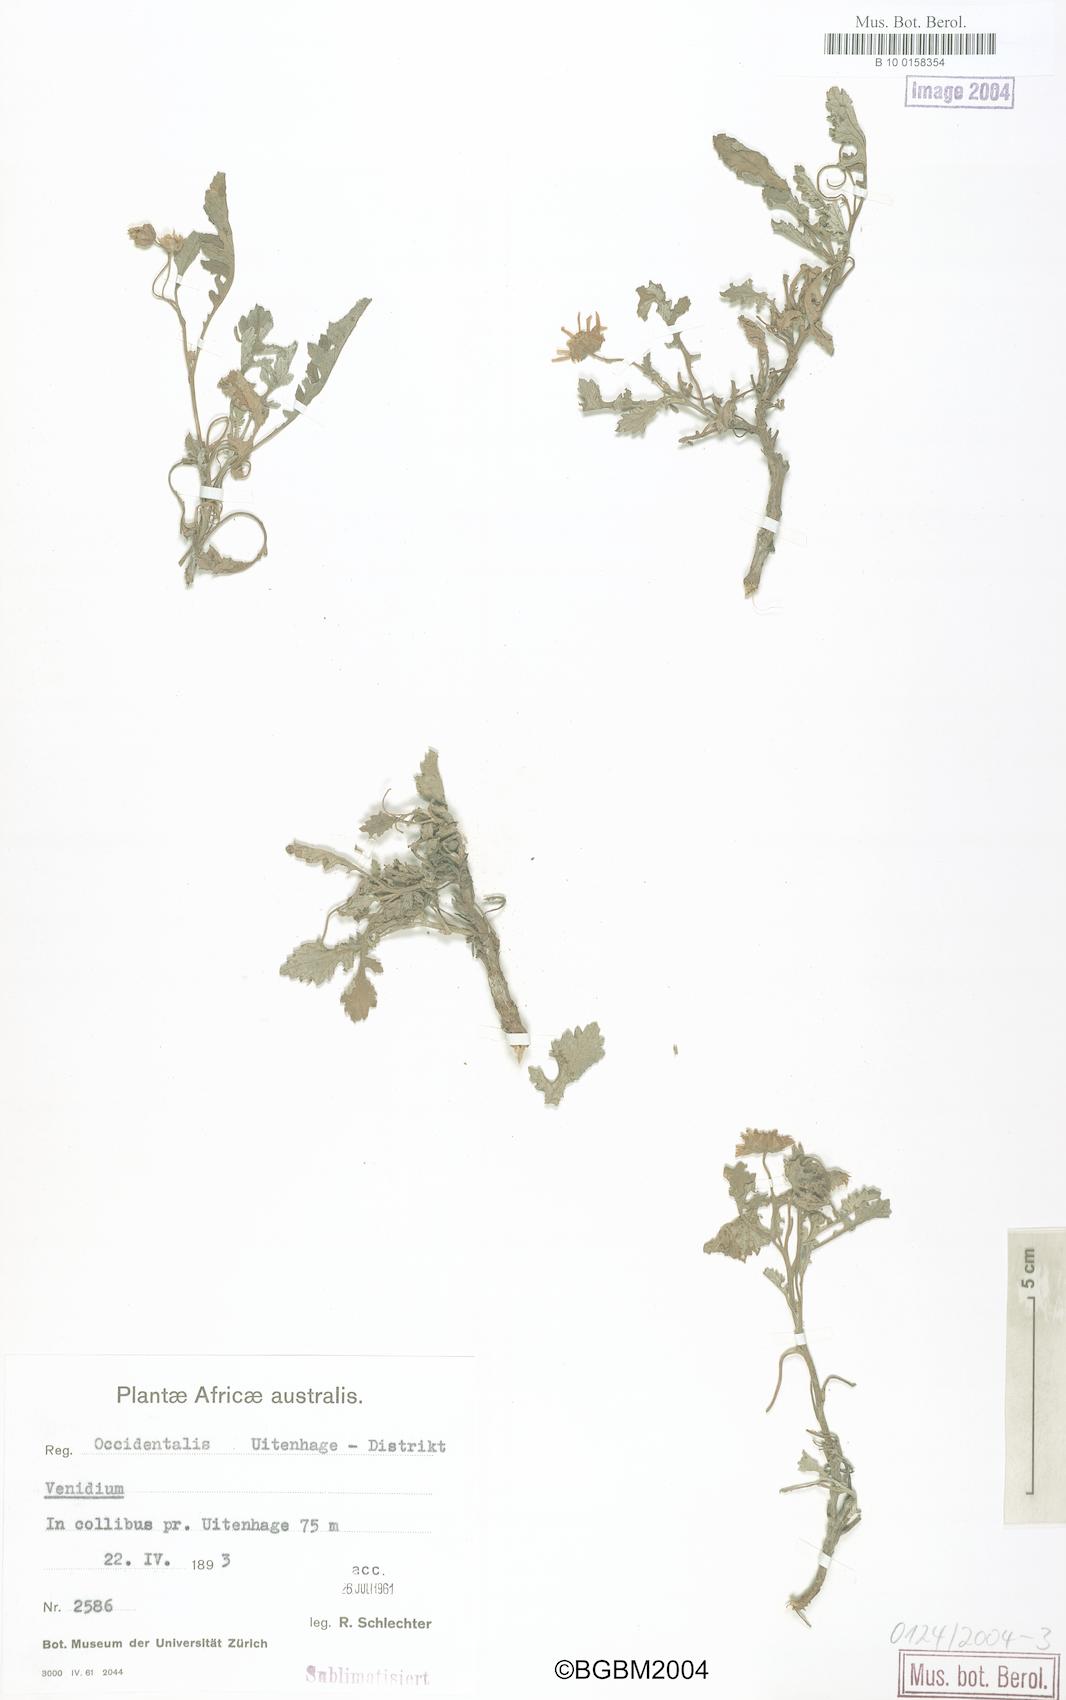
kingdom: Plantae
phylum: Tracheophyta
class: Magnoliopsida
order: Asterales
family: Asteraceae
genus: Arctotis
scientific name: Arctotis
